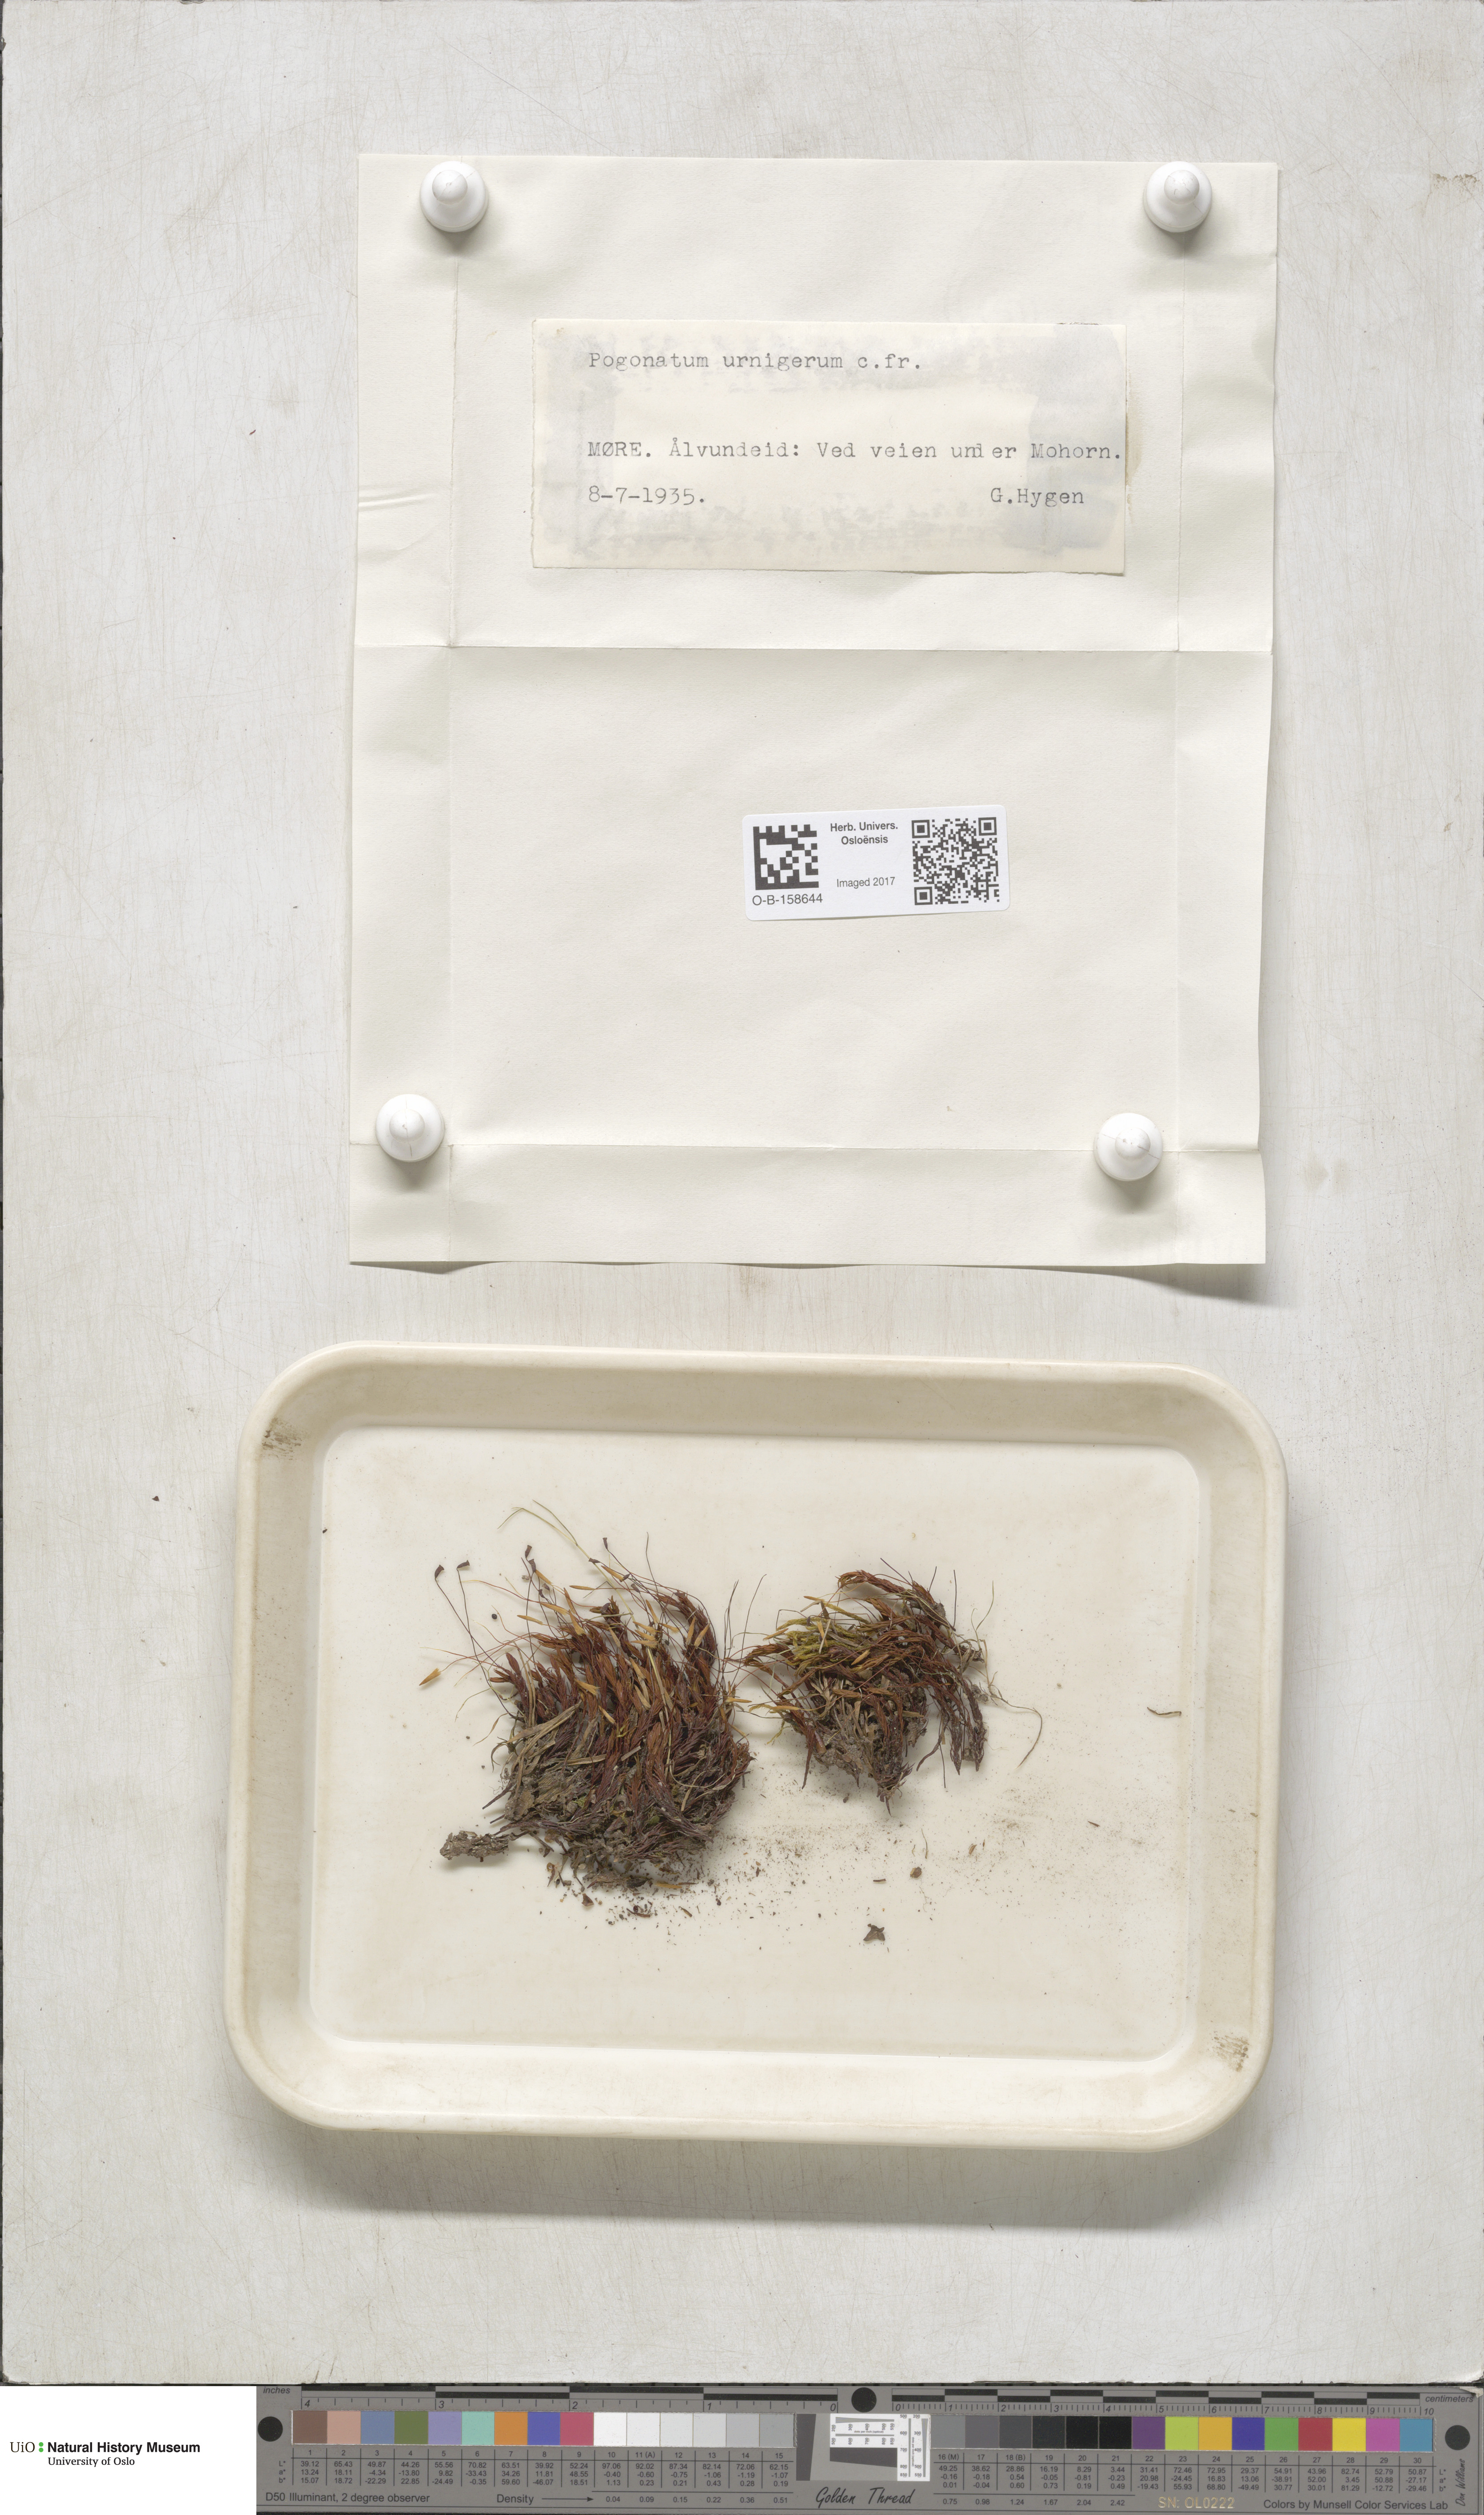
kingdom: Plantae
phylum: Bryophyta
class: Polytrichopsida
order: Polytrichales
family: Polytrichaceae
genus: Pogonatum
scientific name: Pogonatum urnigerum
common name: Urn hair moss
